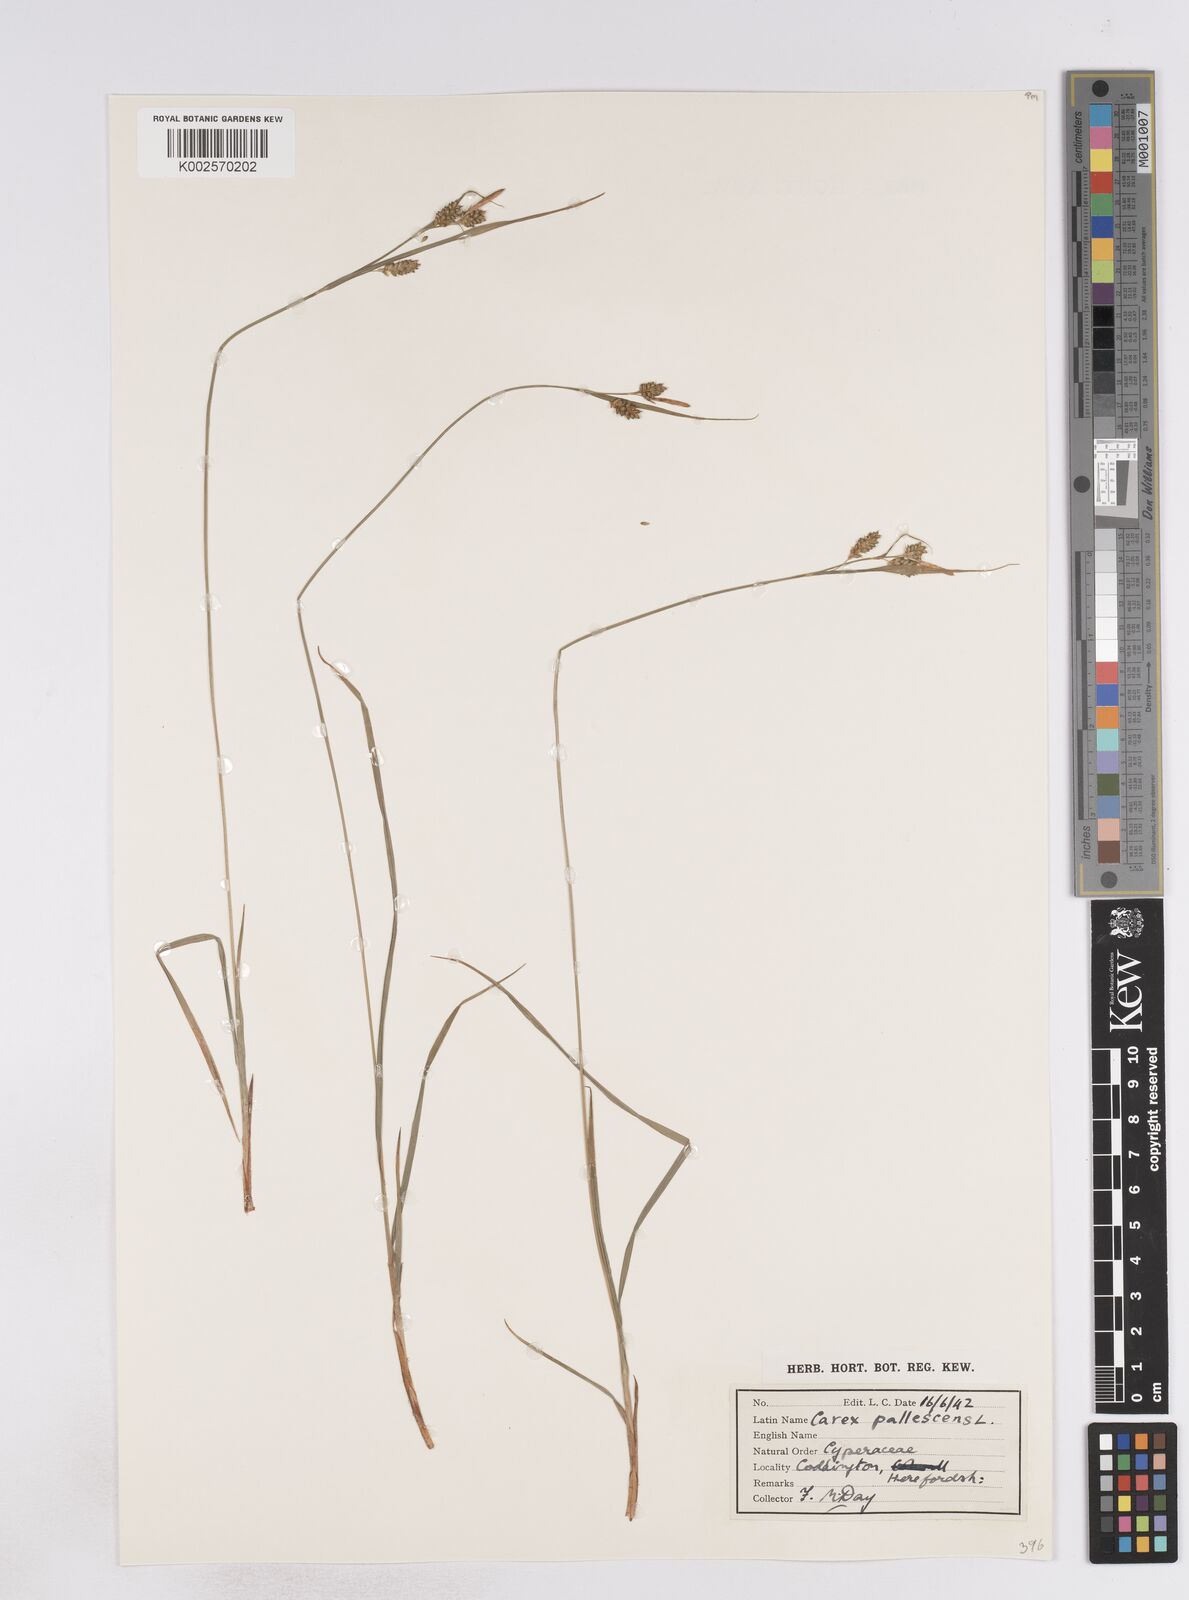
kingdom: Plantae
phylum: Tracheophyta
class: Liliopsida
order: Poales
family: Cyperaceae
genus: Carex
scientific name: Carex pallescens
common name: Pale sedge
